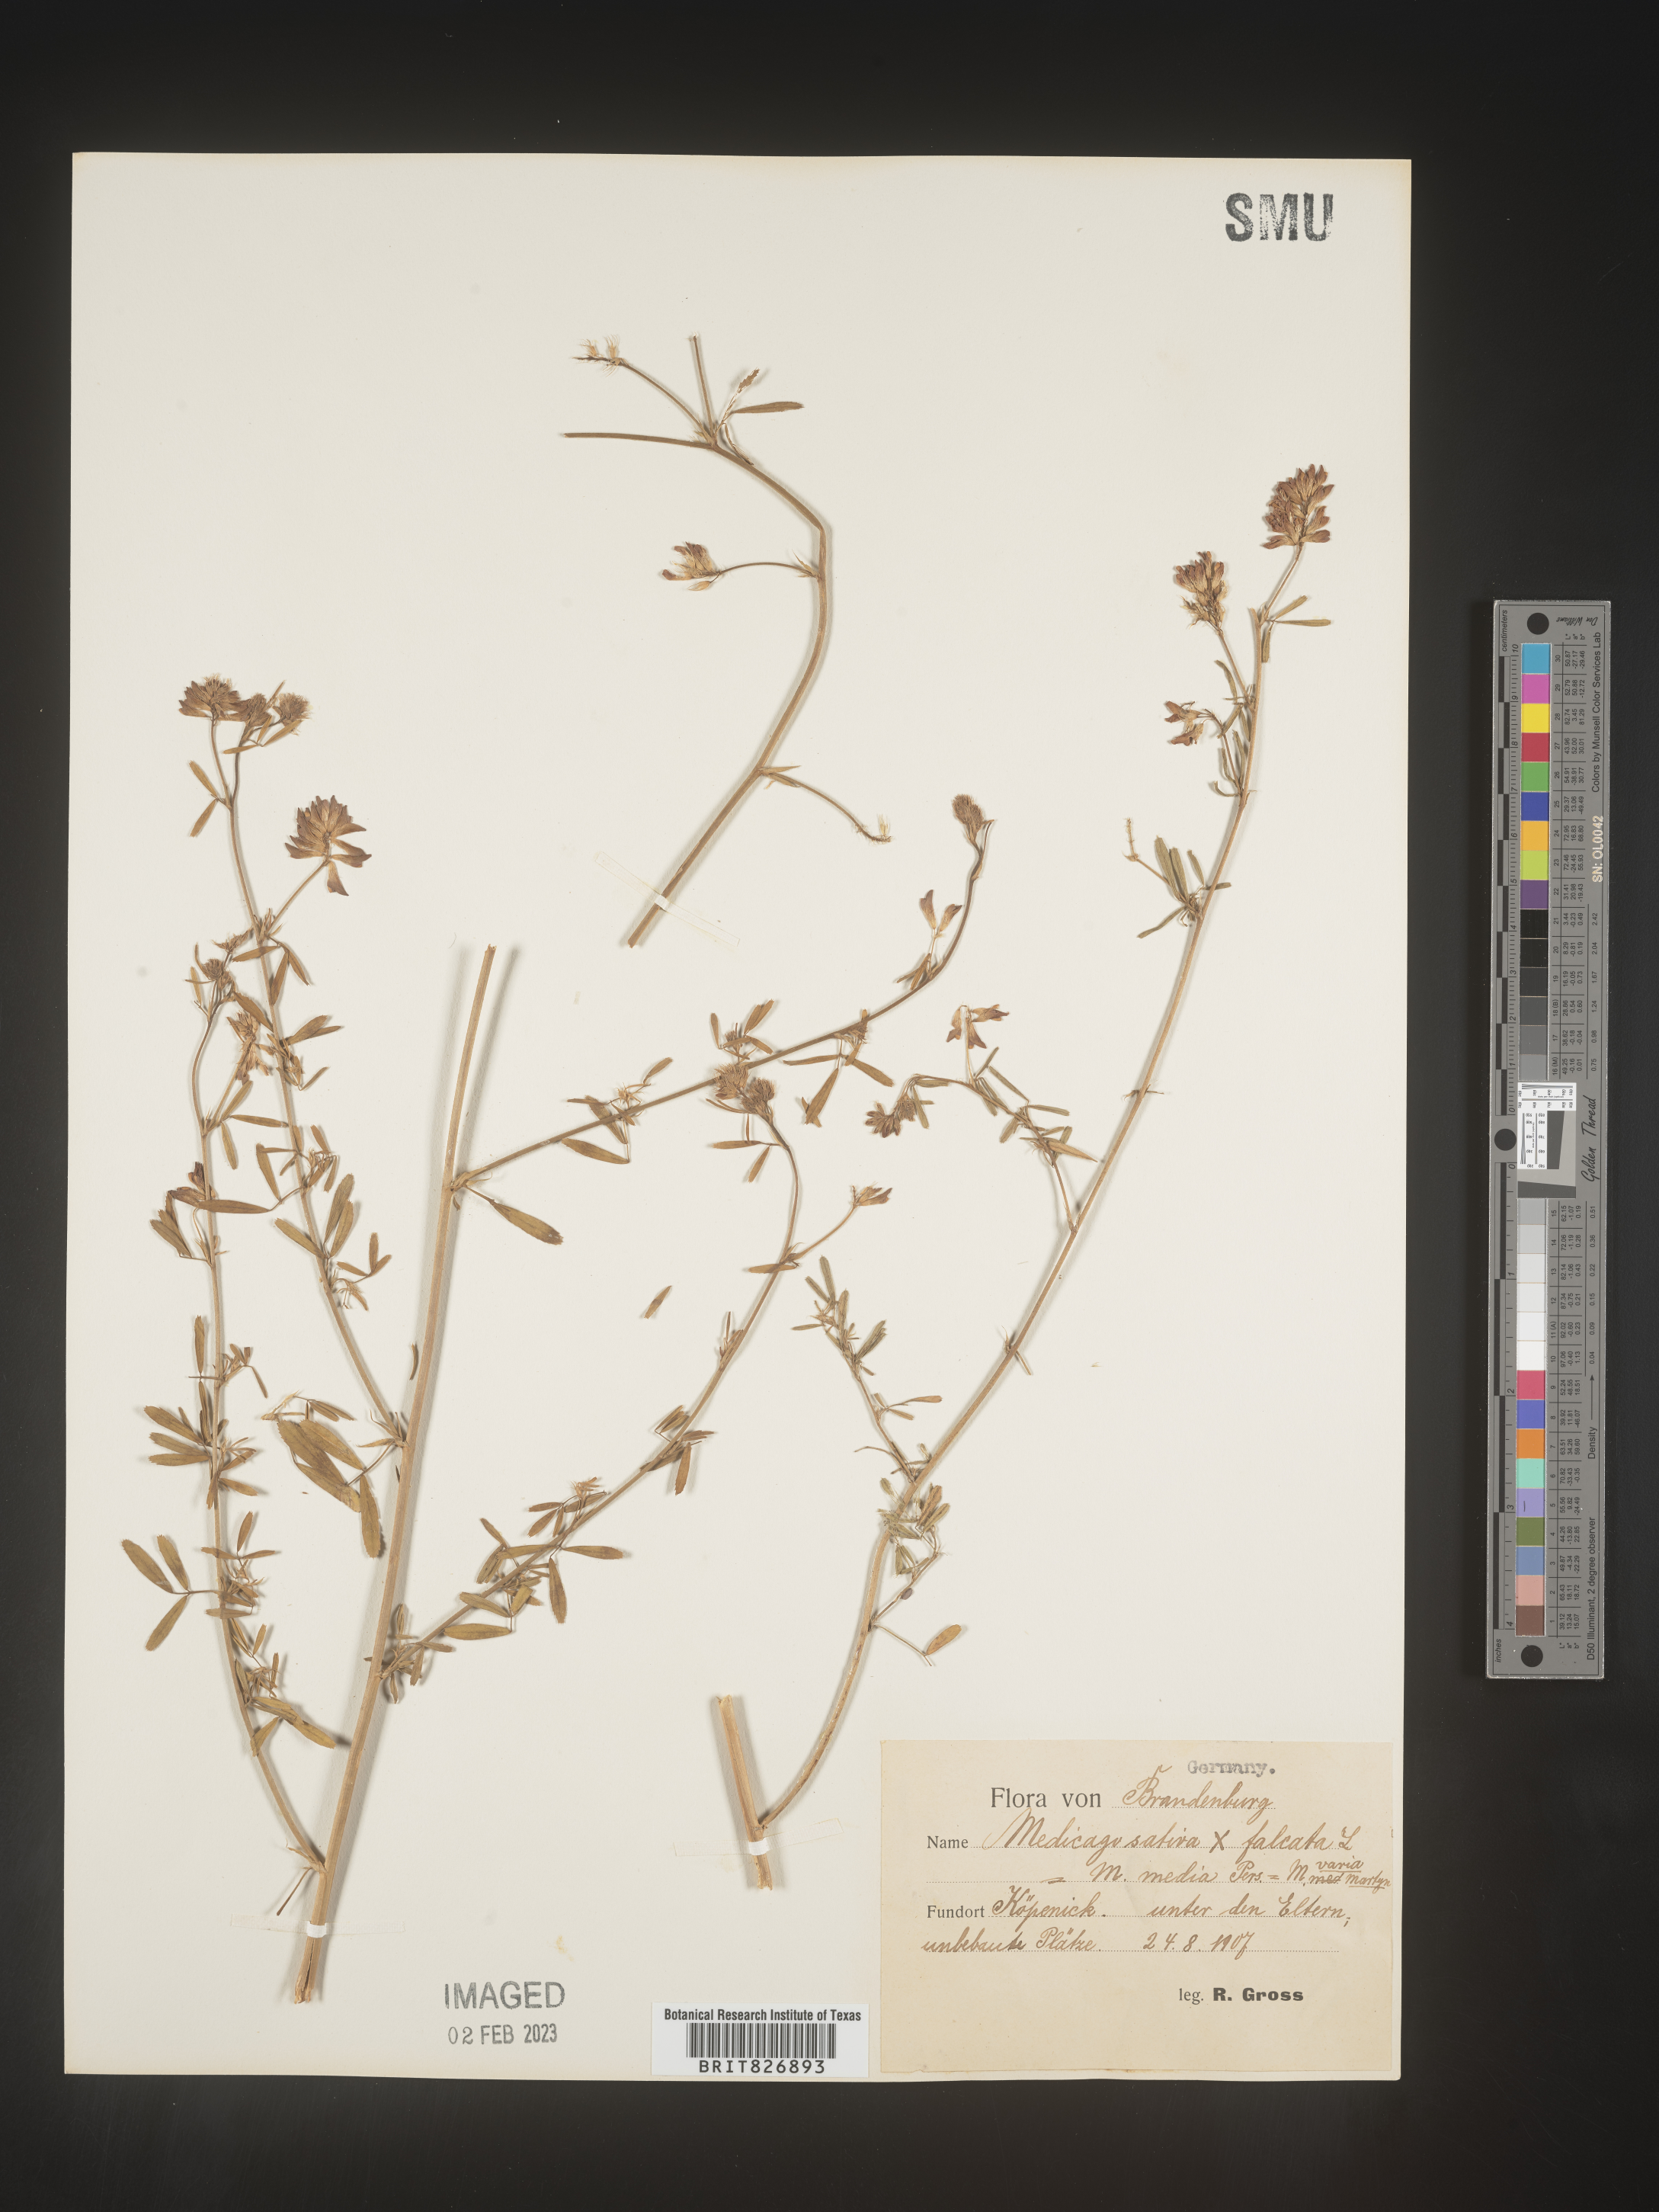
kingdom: Plantae
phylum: Tracheophyta
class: Magnoliopsida
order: Fabales
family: Fabaceae
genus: Medicago
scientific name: Medicago
